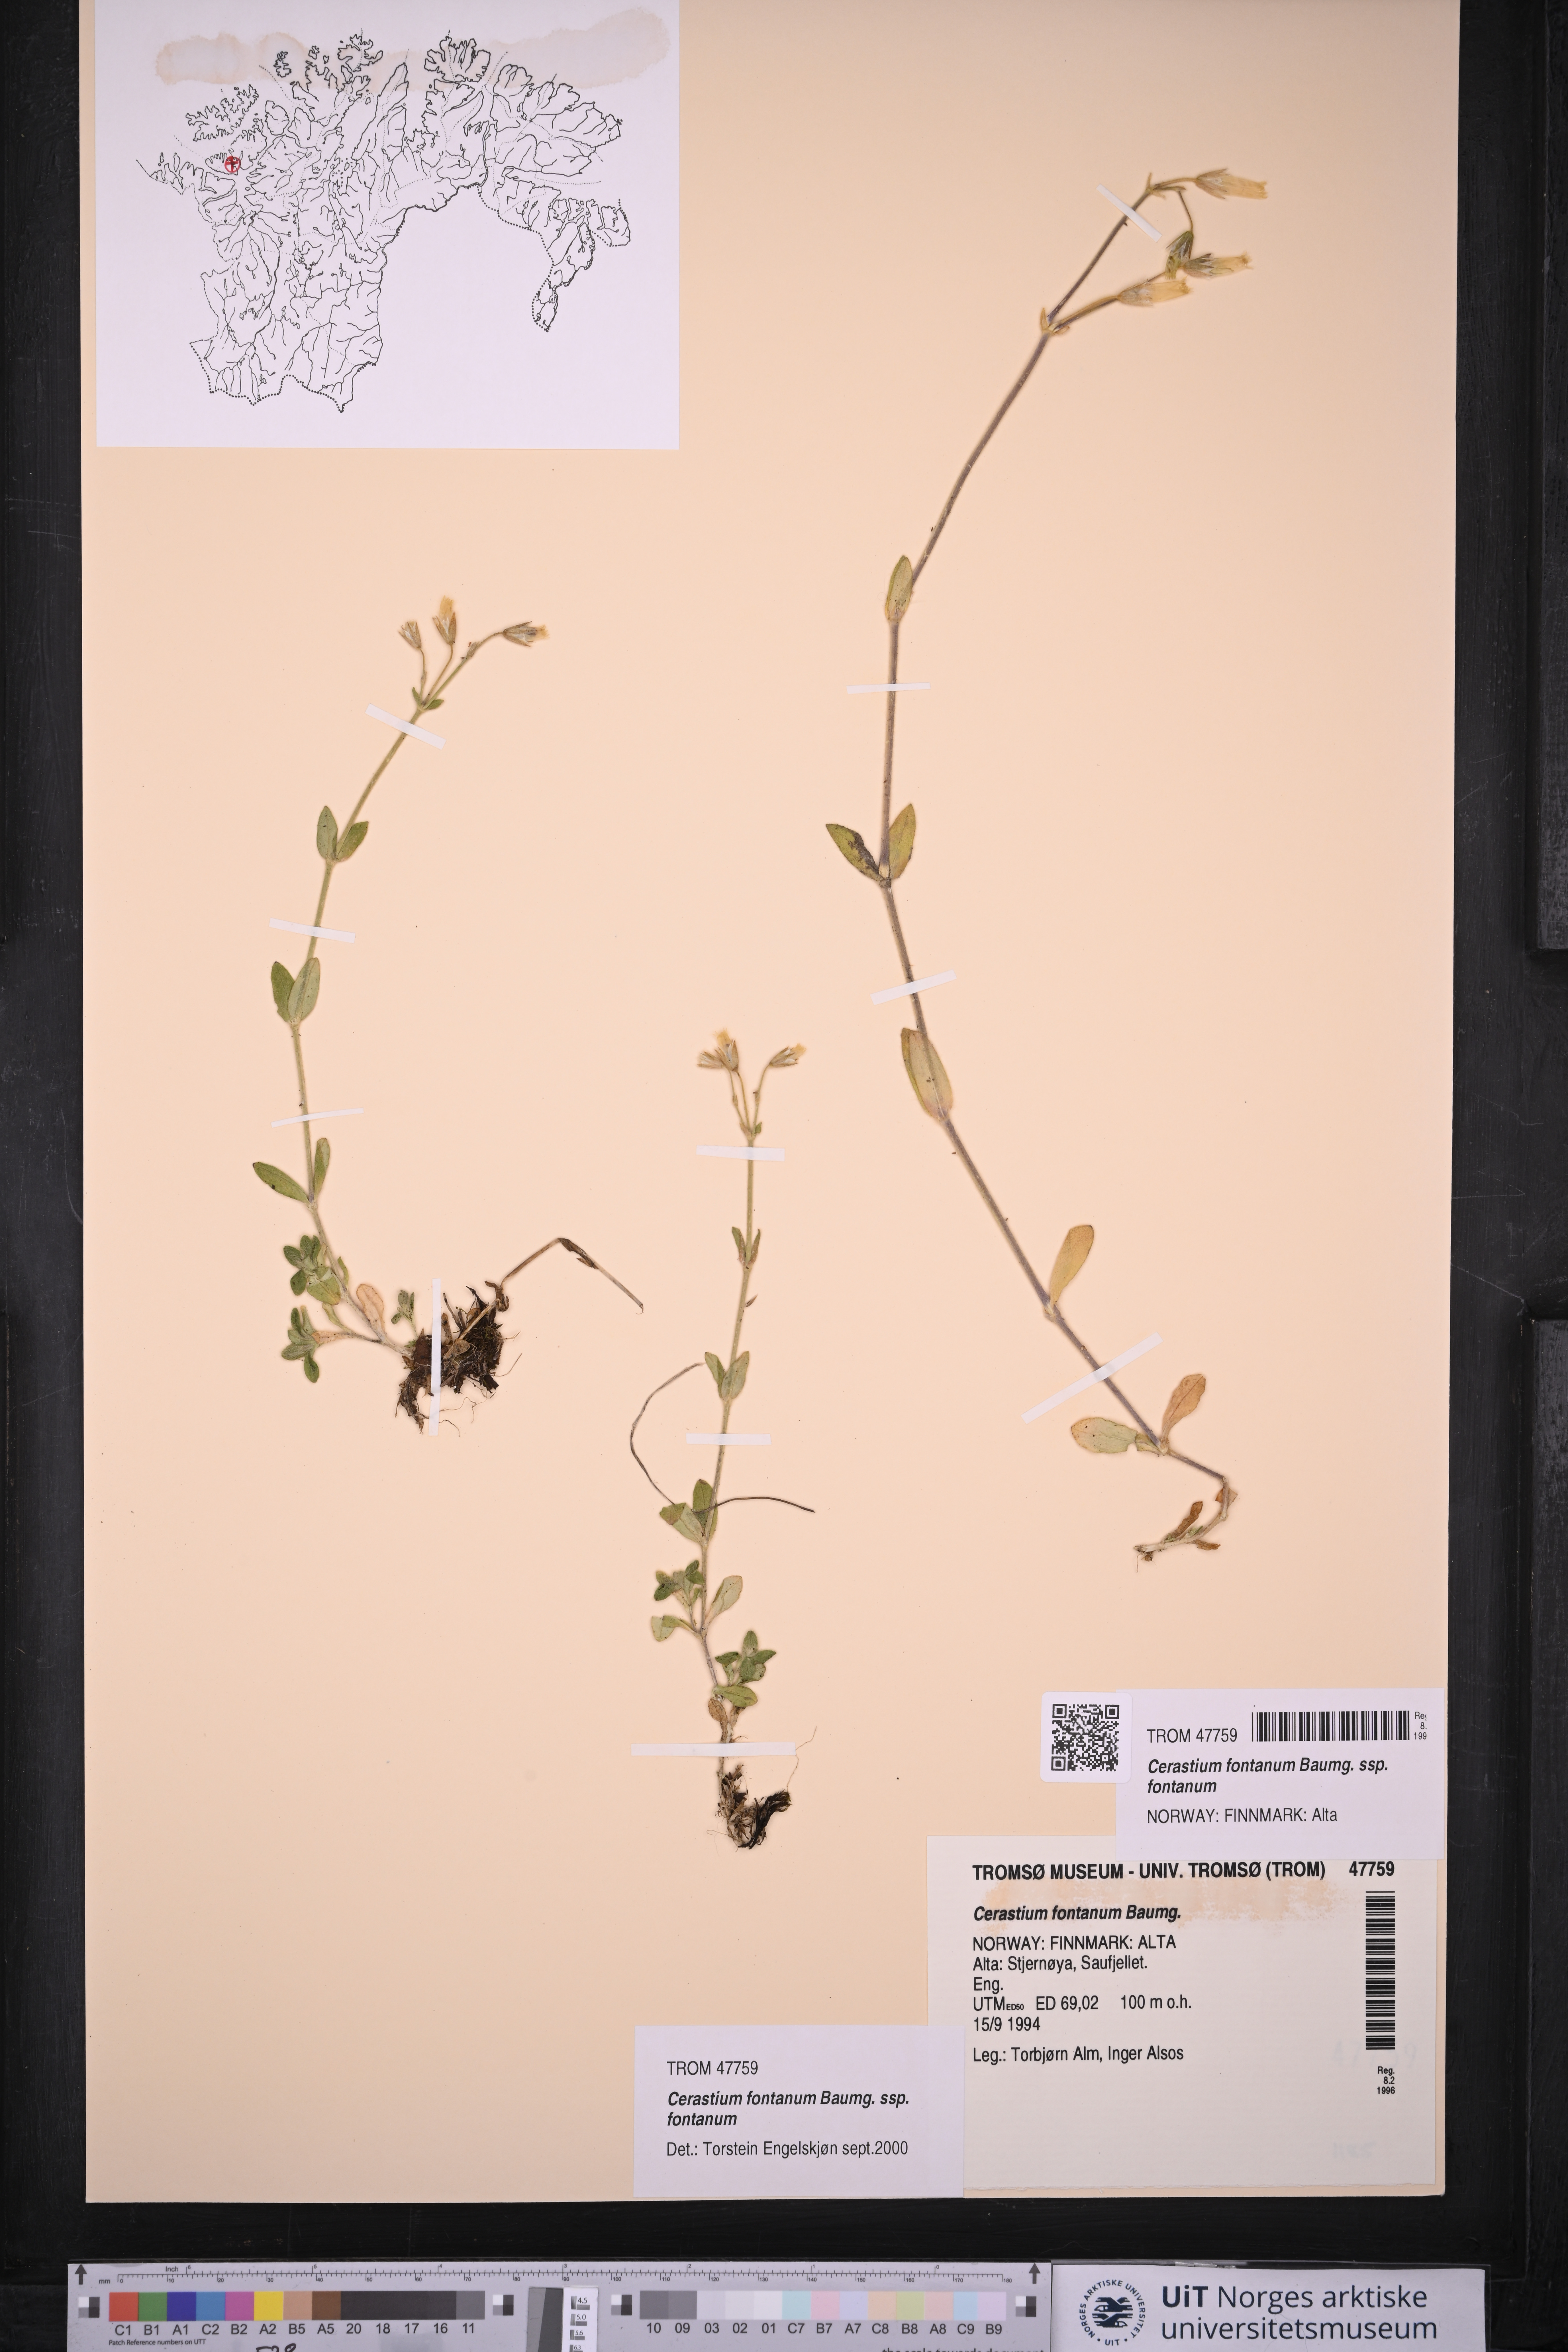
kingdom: Plantae
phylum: Tracheophyta
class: Magnoliopsida
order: Caryophyllales
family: Caryophyllaceae
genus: Cerastium
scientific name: Cerastium fontanum
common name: Common mouse-ear
